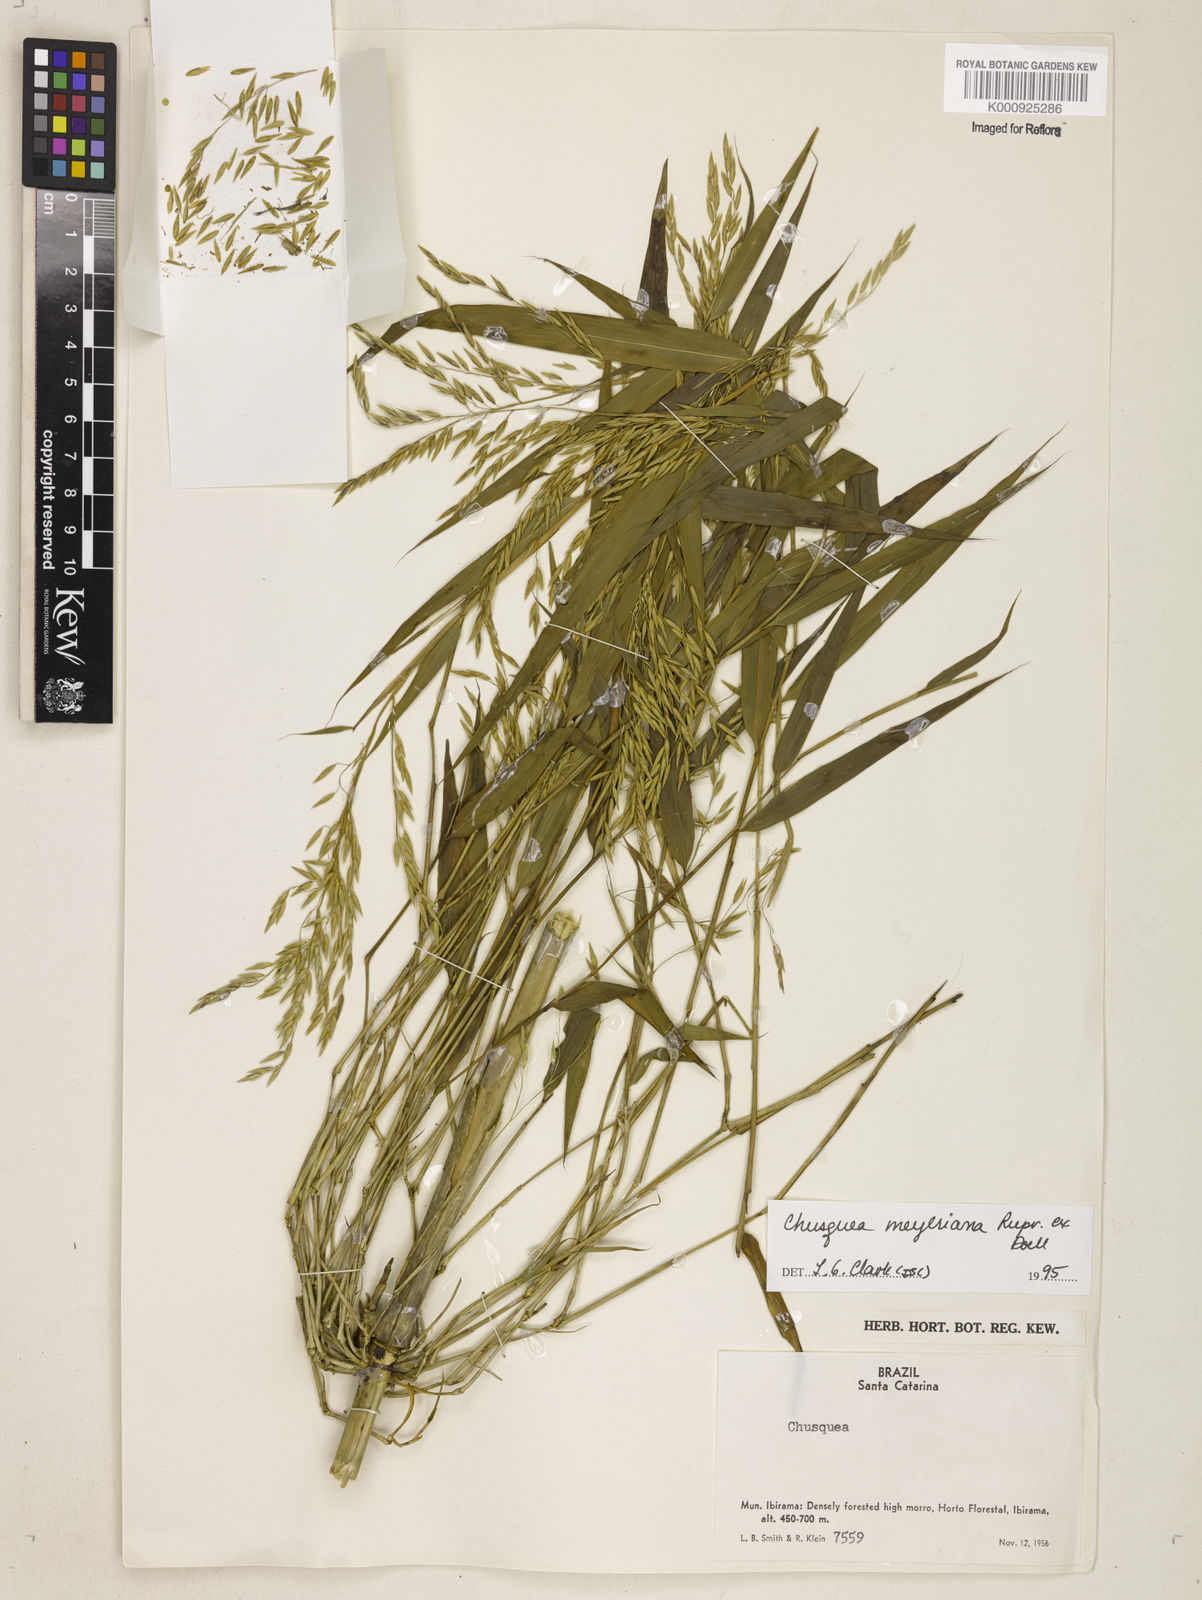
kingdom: Plantae
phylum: Tracheophyta
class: Liliopsida
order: Poales
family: Poaceae
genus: Chusquea
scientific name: Chusquea
